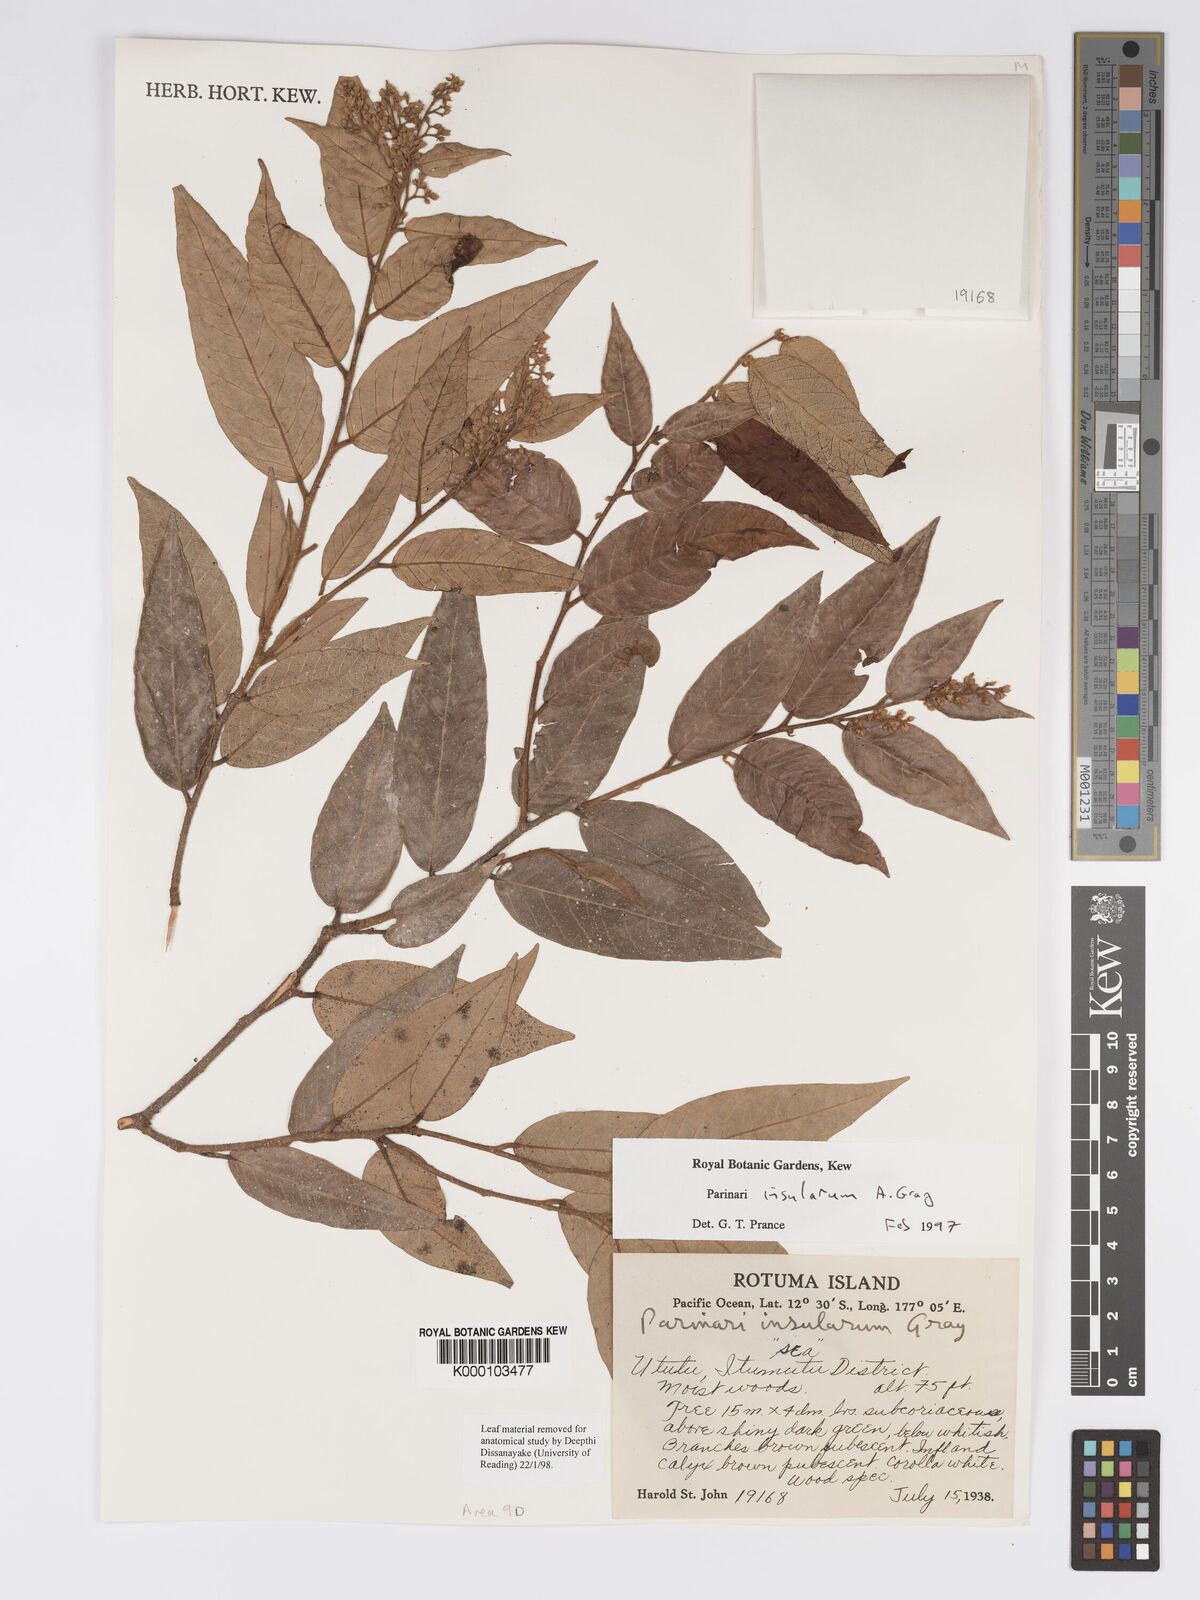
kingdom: Plantae
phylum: Tracheophyta
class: Magnoliopsida
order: Malpighiales
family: Chrysobalanaceae
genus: Parinari
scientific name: Parinari insularum
